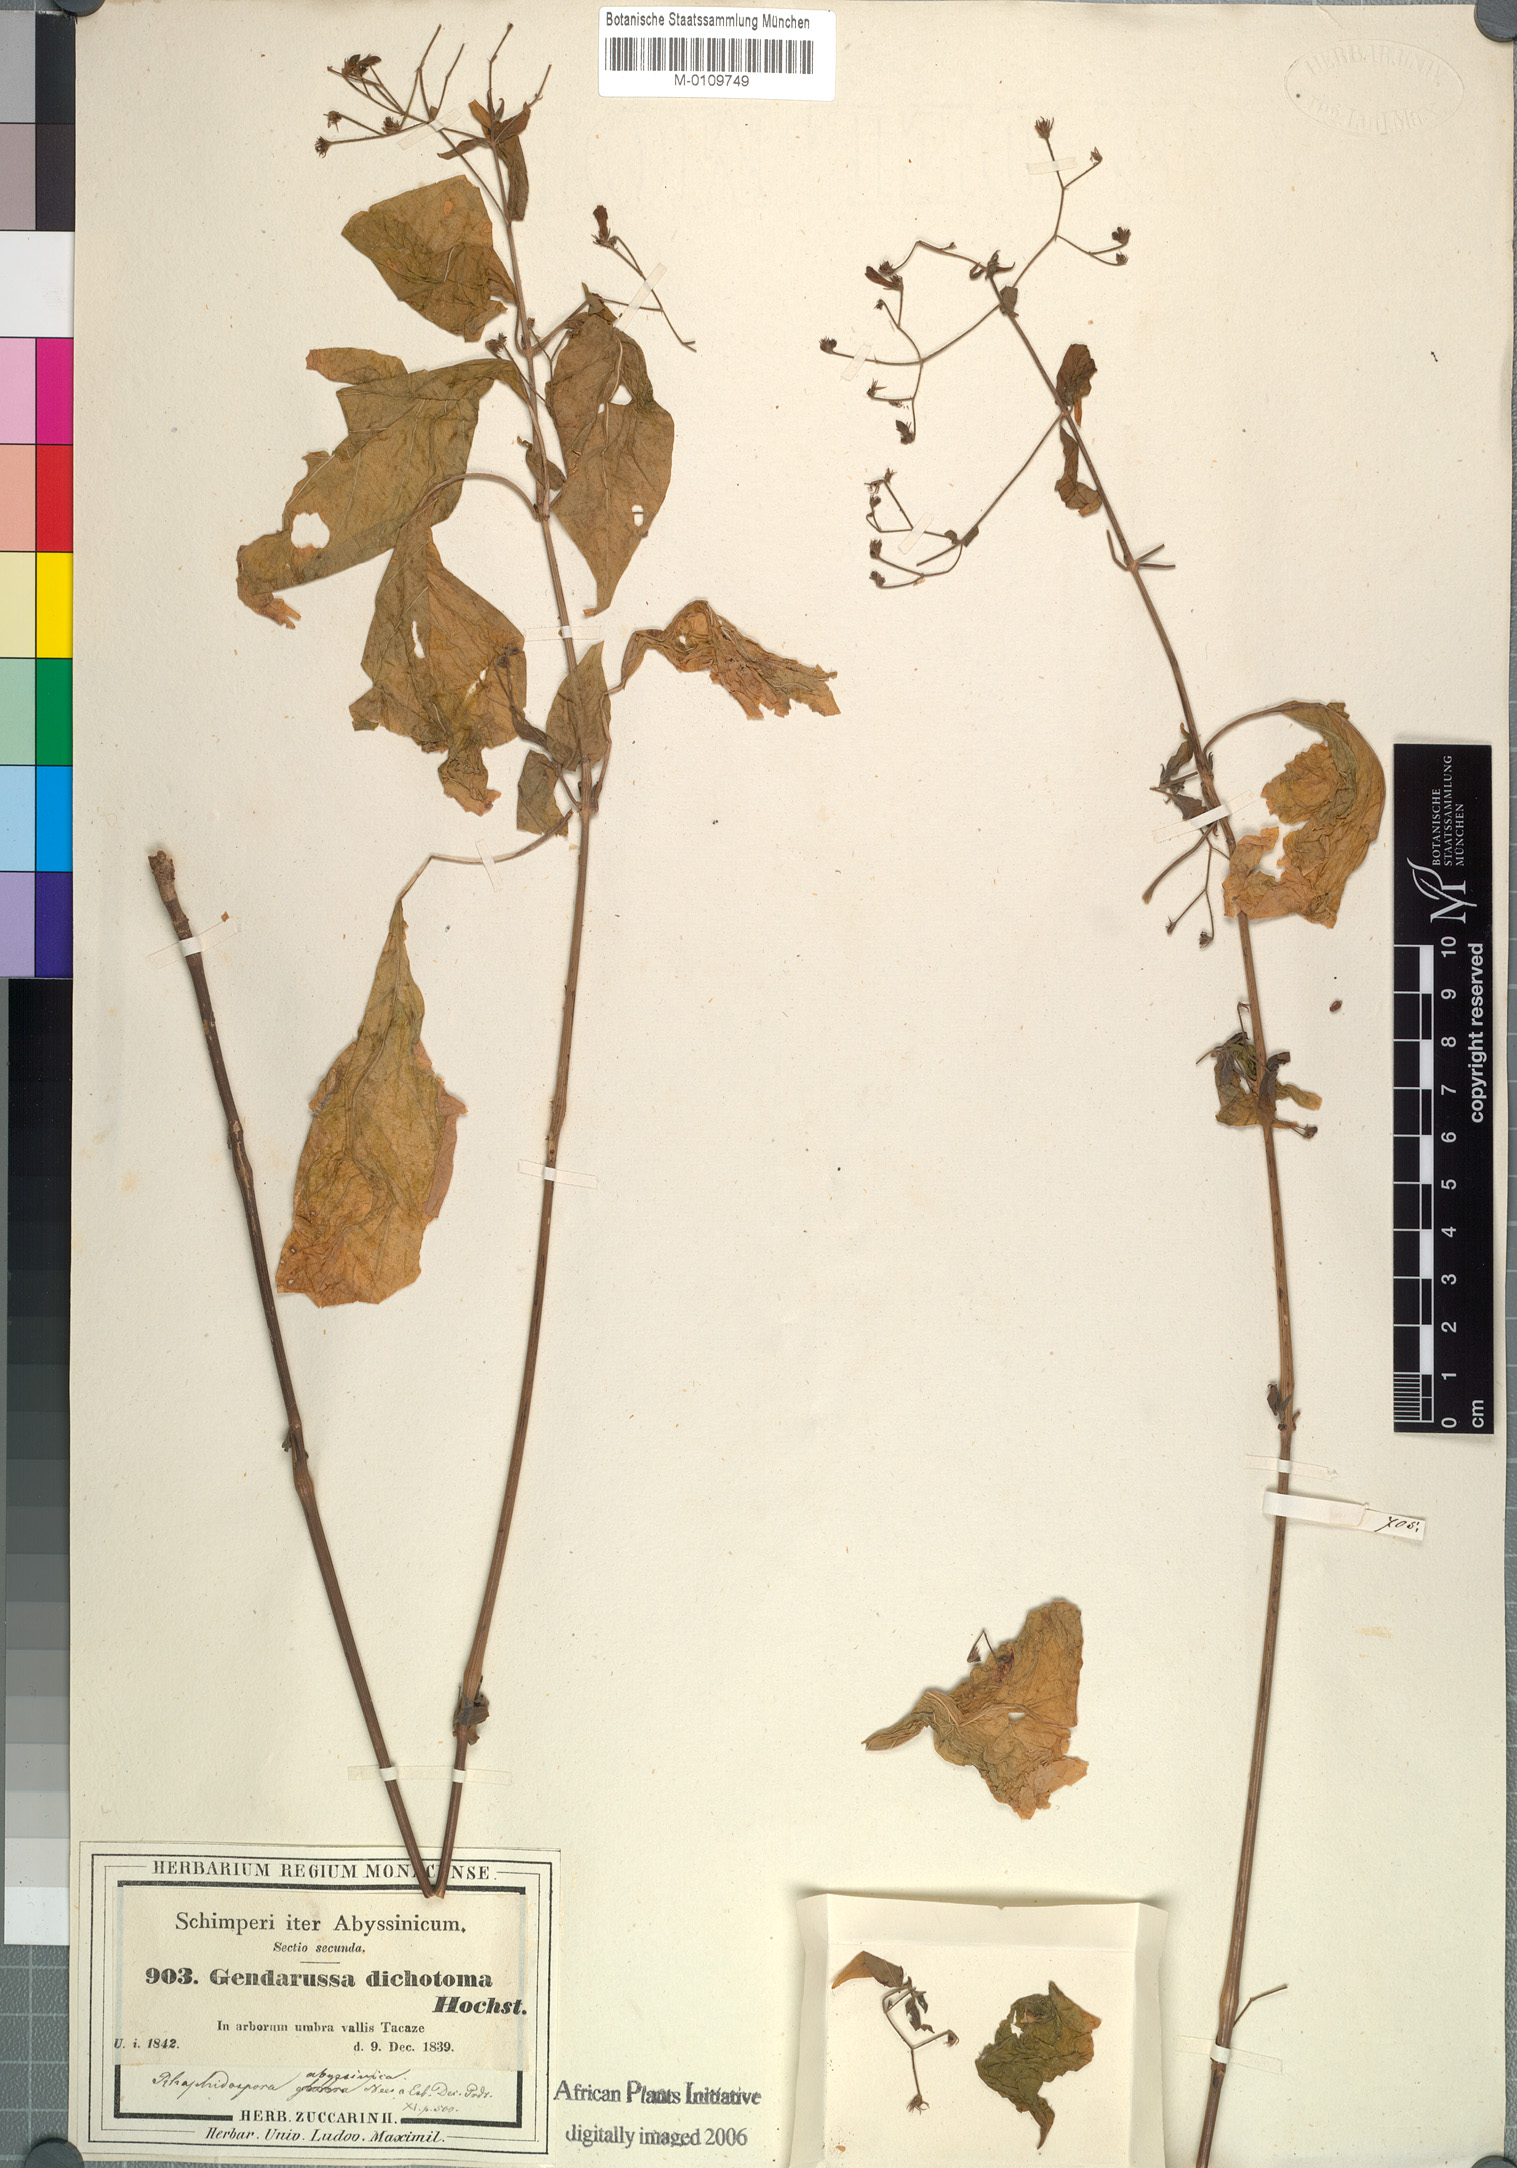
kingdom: Plantae
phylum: Tracheophyta
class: Magnoliopsida
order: Lamiales
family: Acanthaceae
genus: Justicia
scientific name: Justicia scandens
